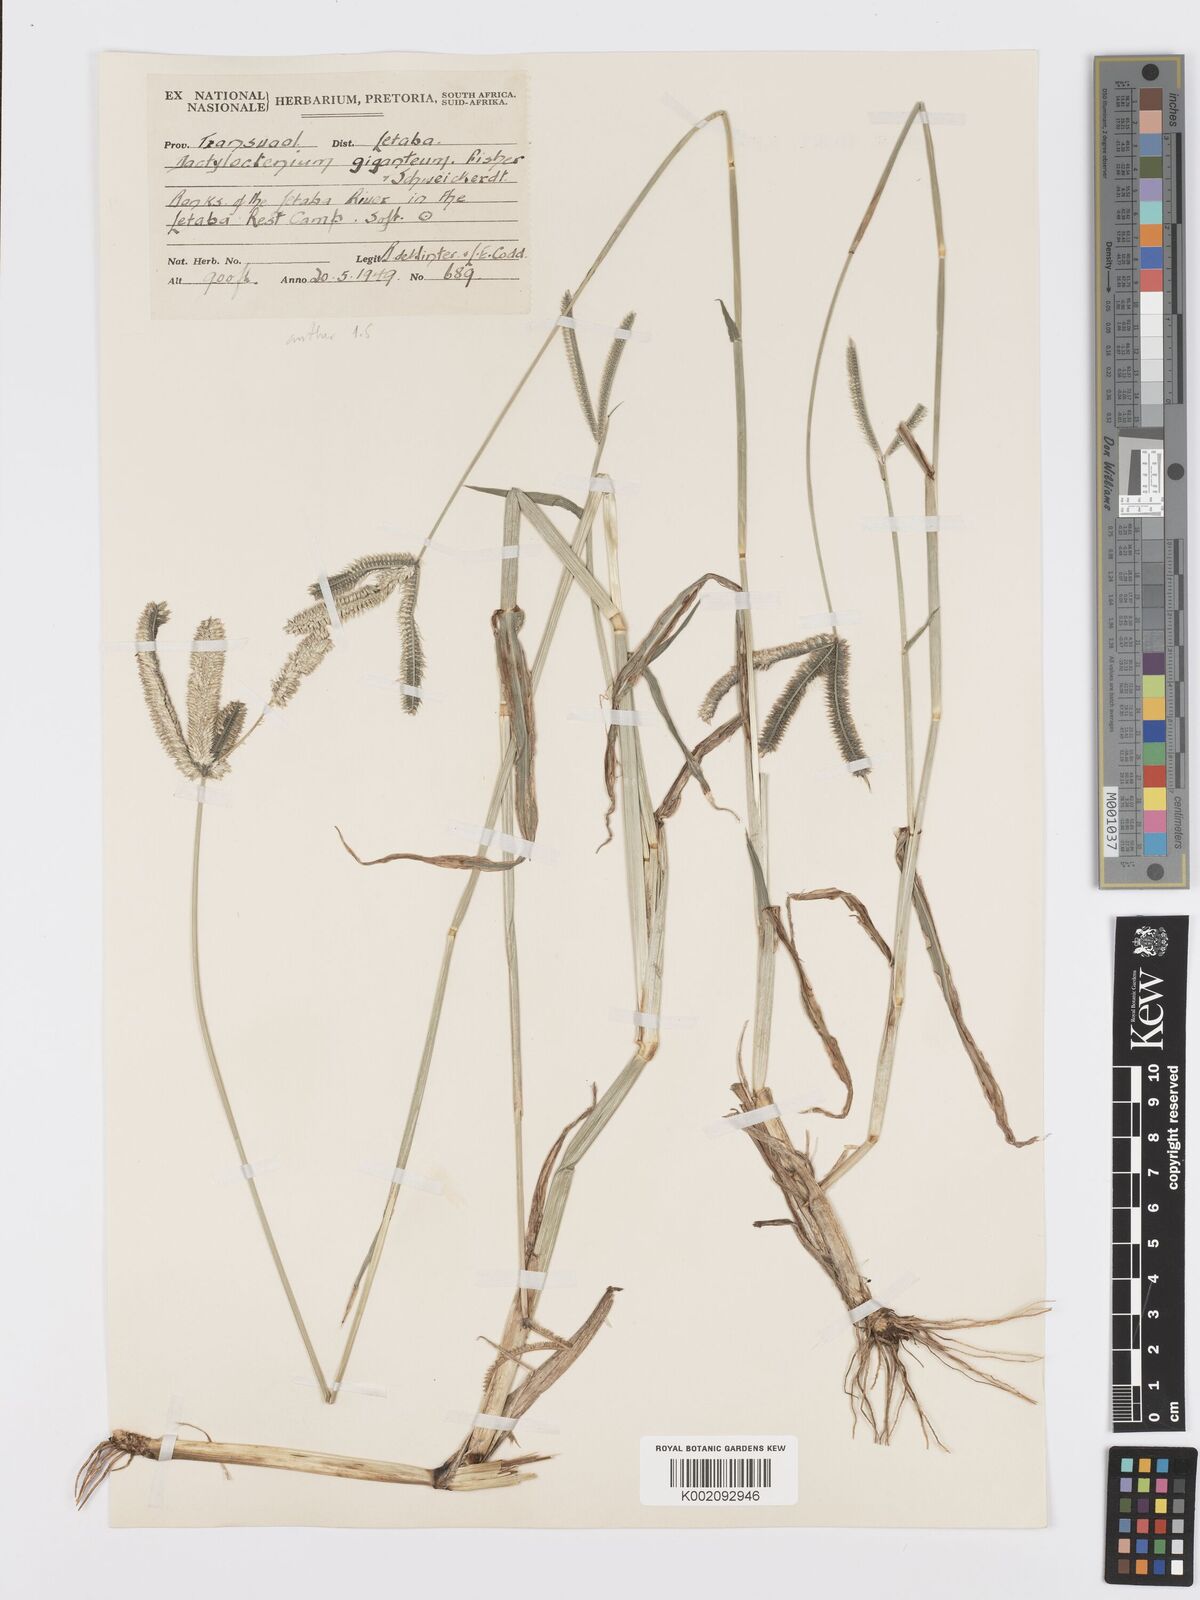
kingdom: Plantae
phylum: Tracheophyta
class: Liliopsida
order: Poales
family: Poaceae
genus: Dactyloctenium
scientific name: Dactyloctenium giganteum
